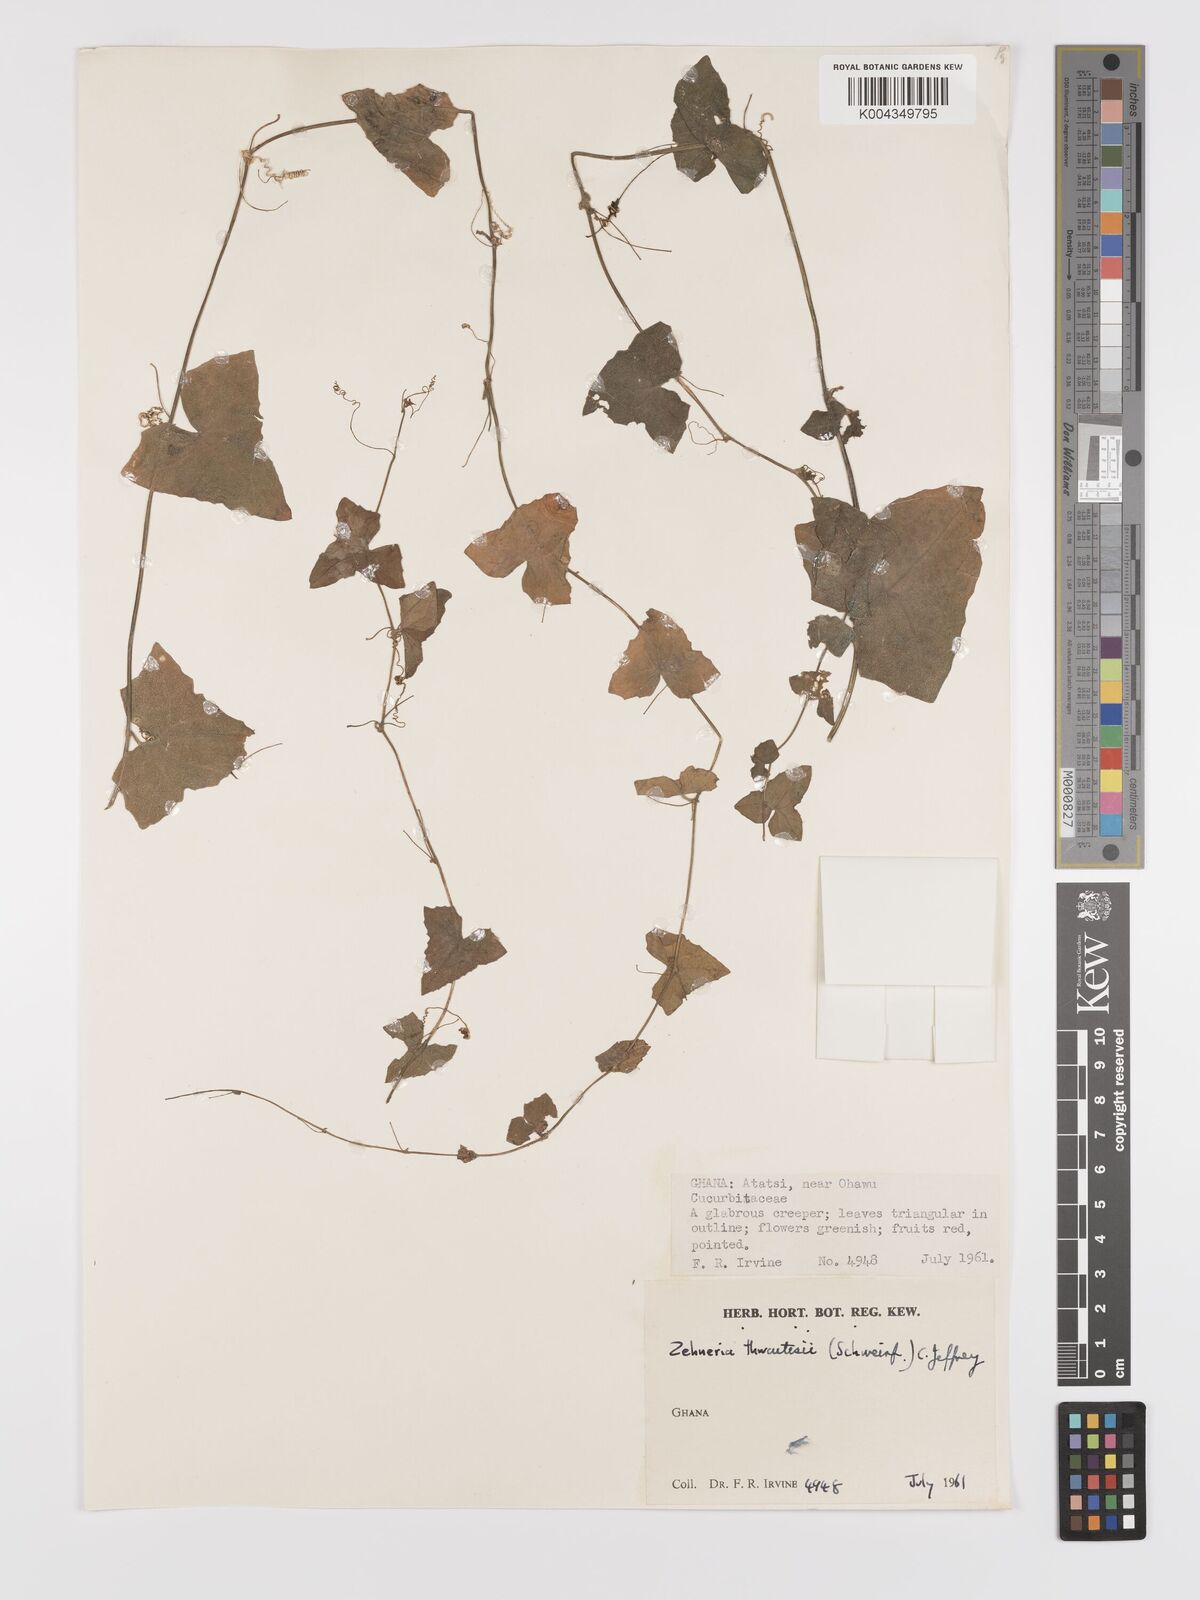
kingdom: Plantae
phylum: Tracheophyta
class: Magnoliopsida
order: Cucurbitales
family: Cucurbitaceae
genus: Zehneria
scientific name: Zehneria hallii
